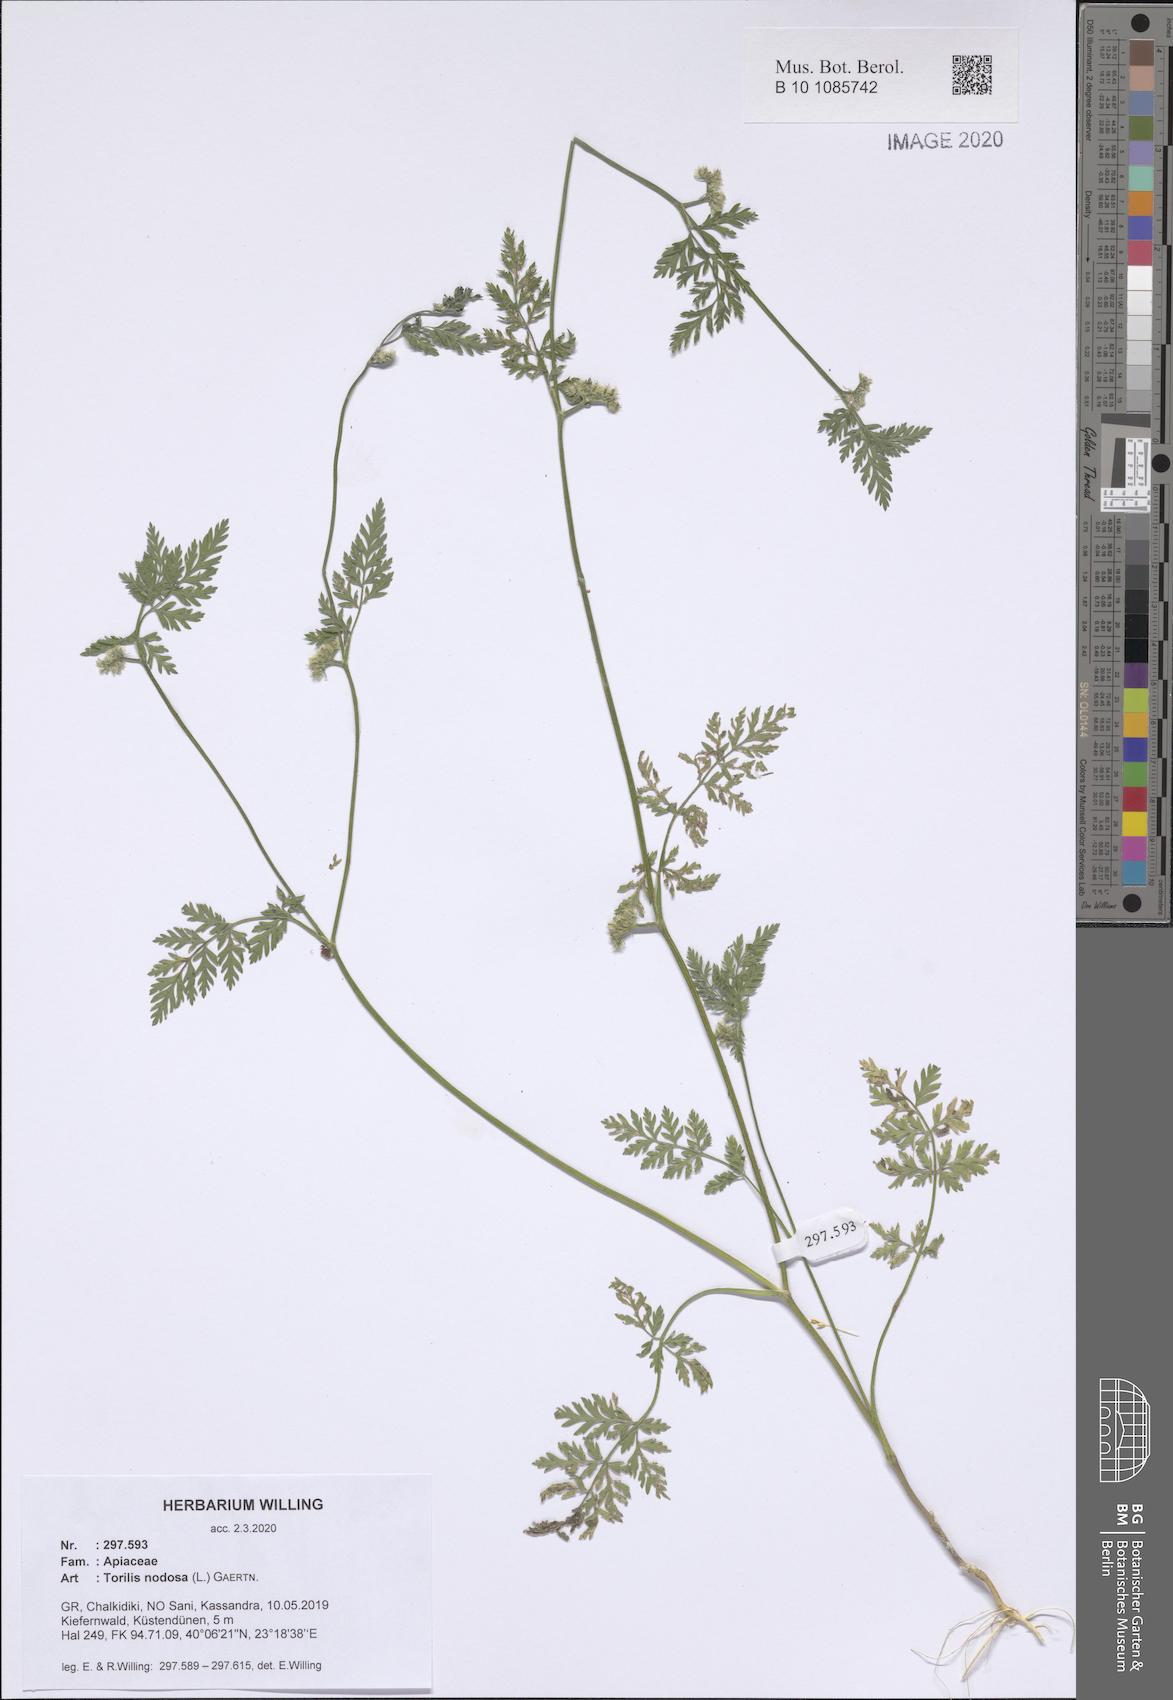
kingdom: Plantae
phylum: Tracheophyta
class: Magnoliopsida
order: Apiales
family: Apiaceae
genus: Torilis
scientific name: Torilis nodosa
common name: Knotted hedge-parsley
